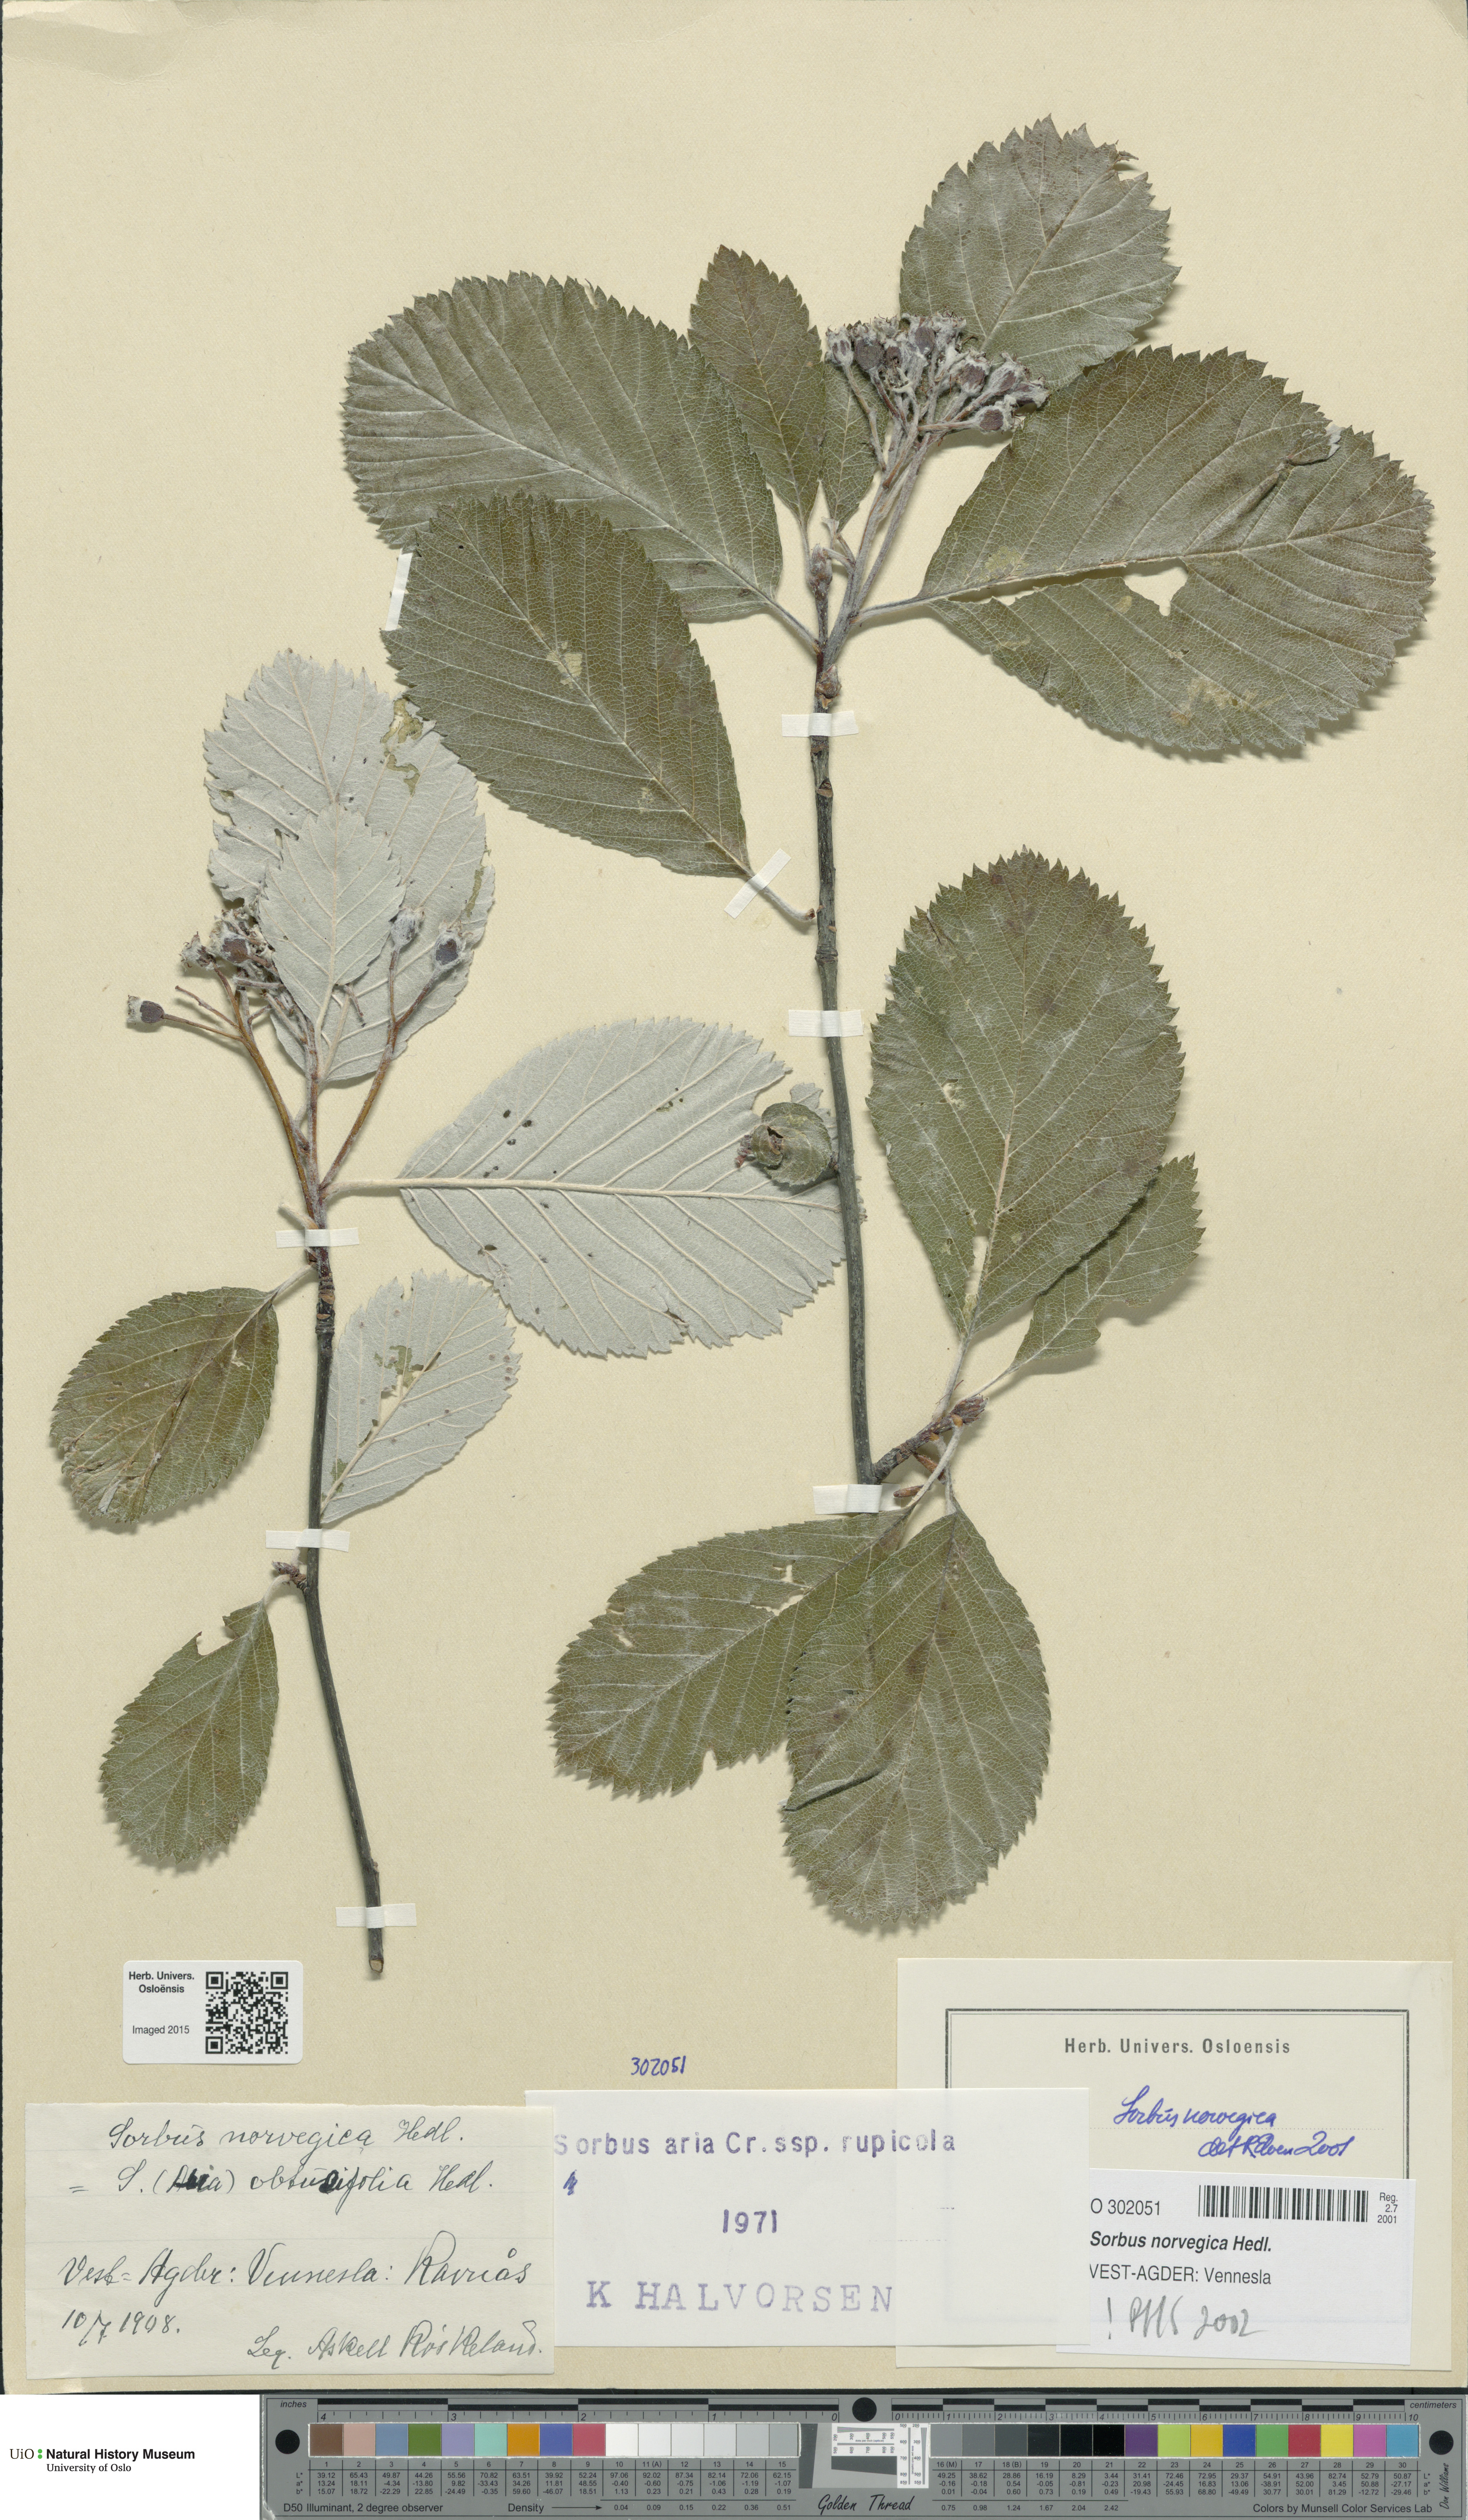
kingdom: Plantae
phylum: Tracheophyta
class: Magnoliopsida
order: Rosales
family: Rosaceae
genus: Aria
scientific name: Aria obtusifolia
